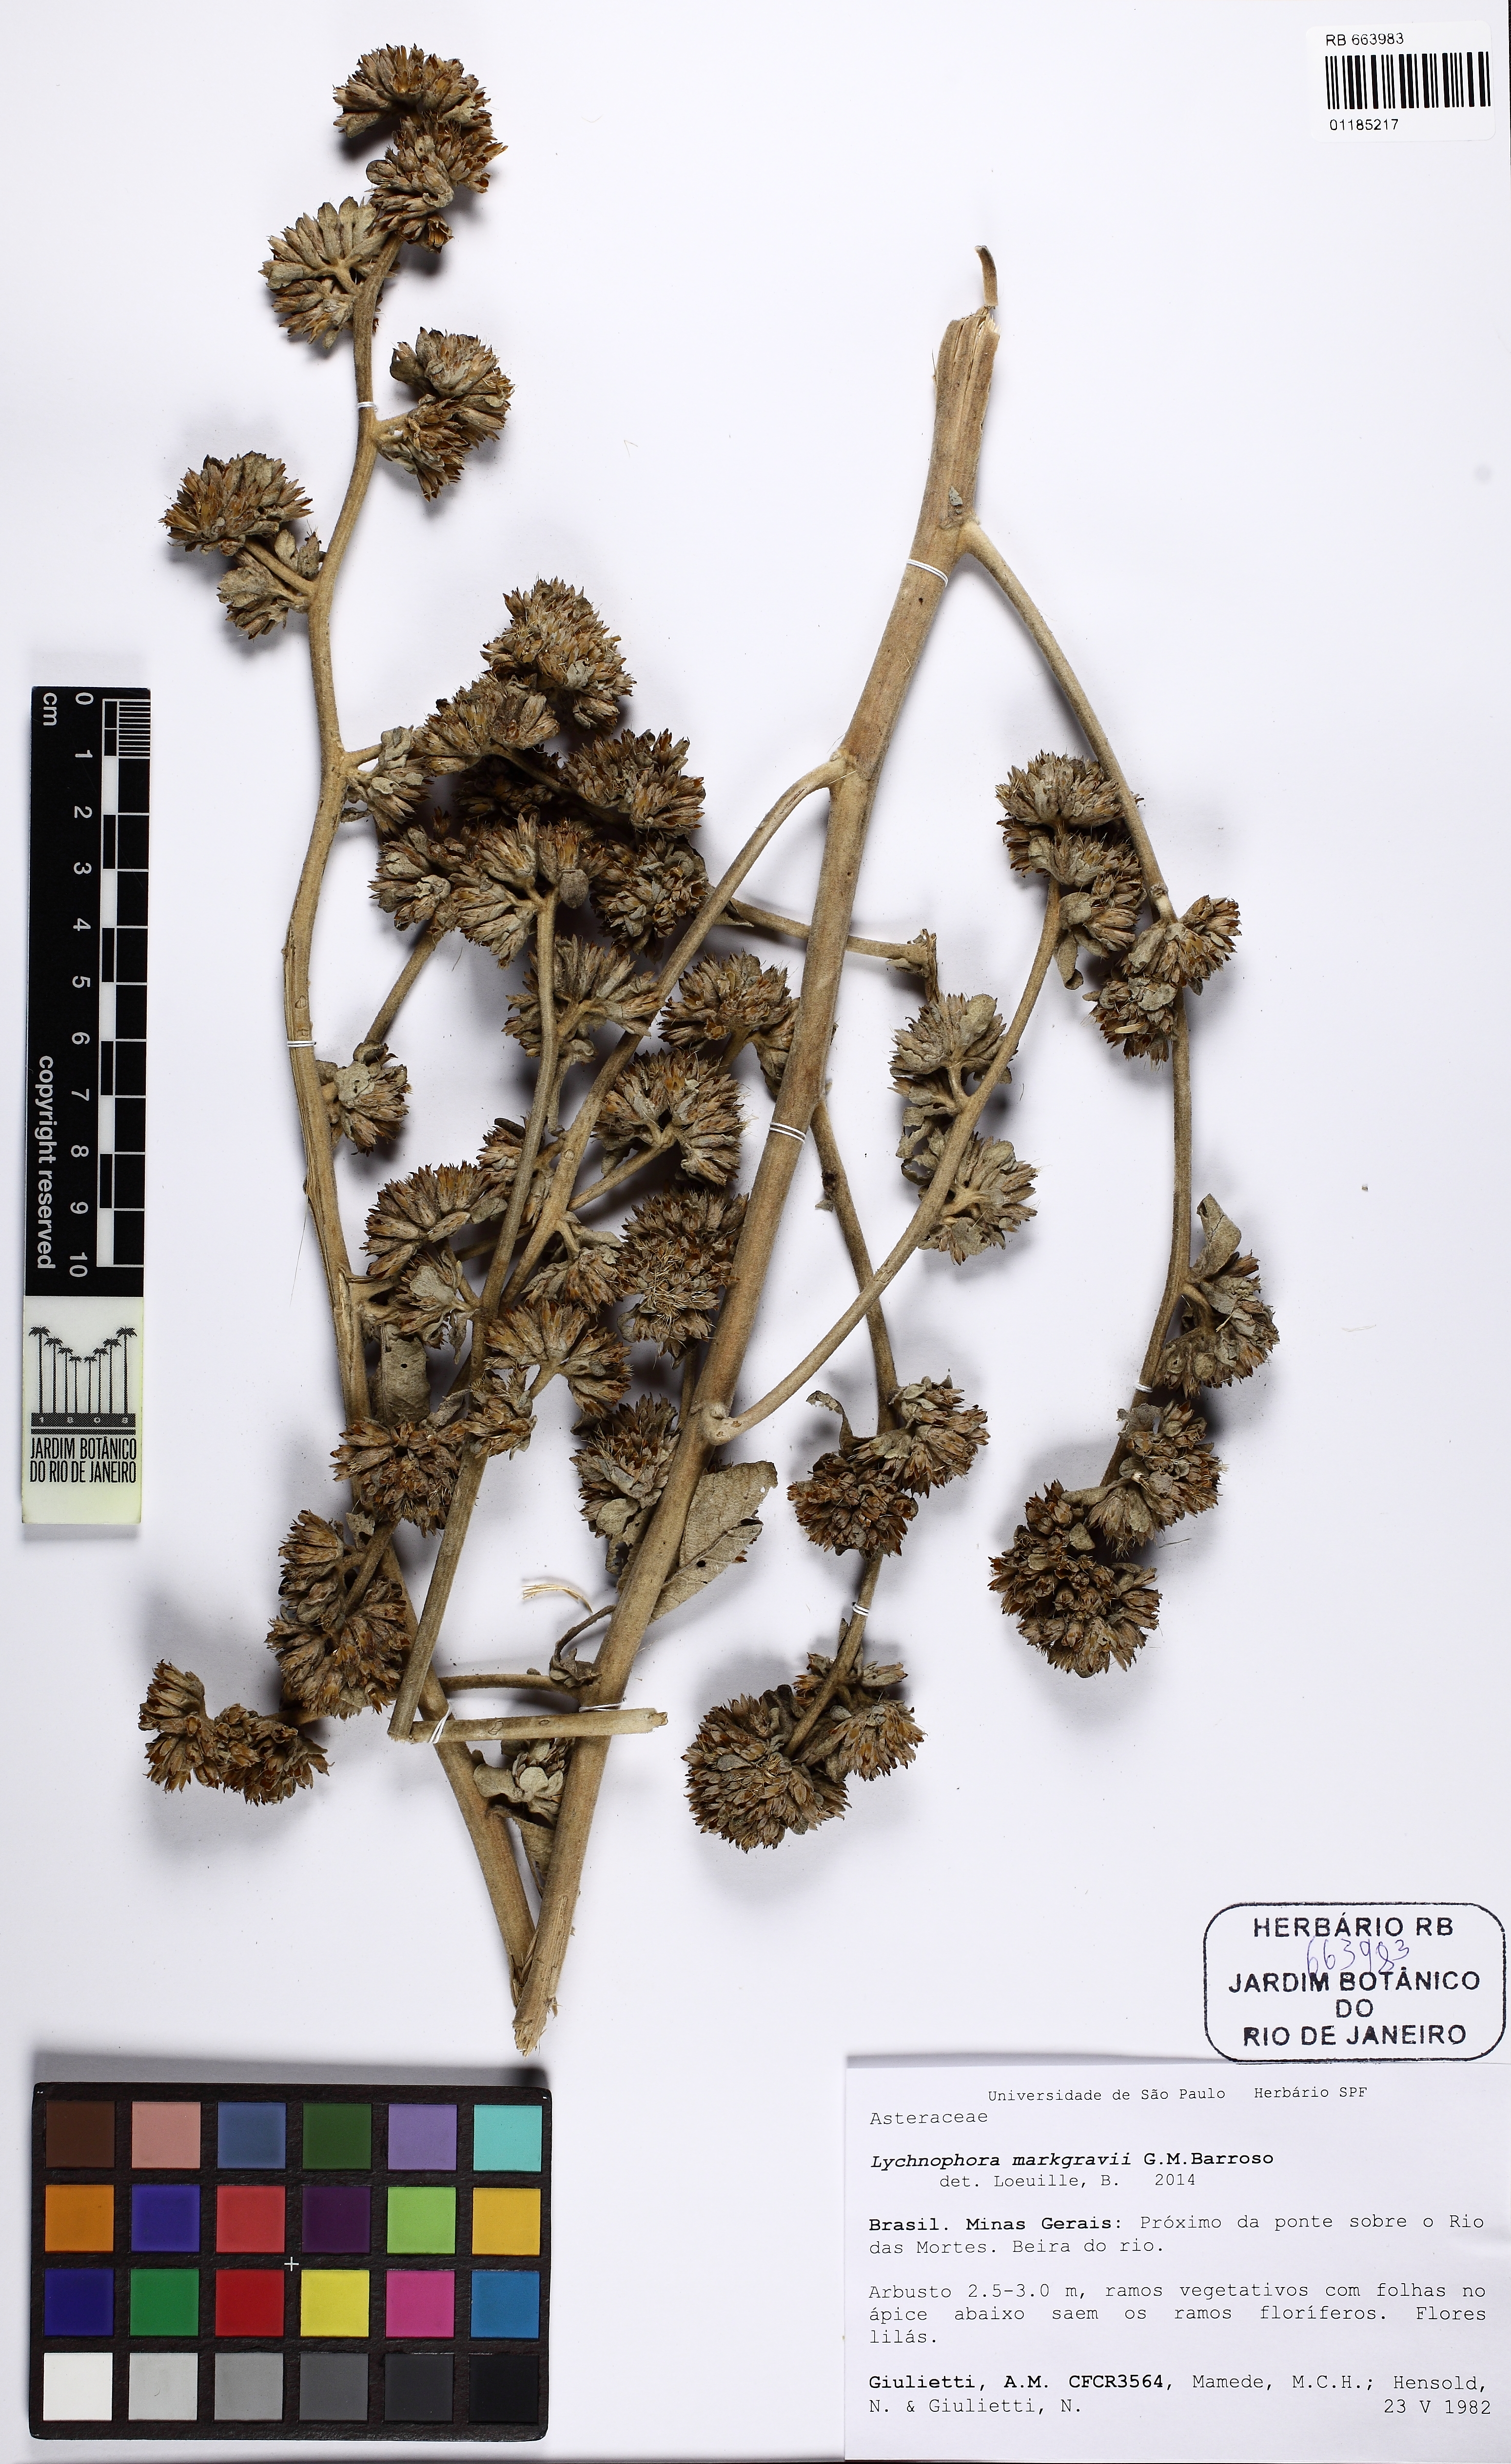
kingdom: Plantae
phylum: Tracheophyta
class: Magnoliopsida
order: Asterales
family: Asteraceae
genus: Maschalostachys
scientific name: Maschalostachys markgrafii
